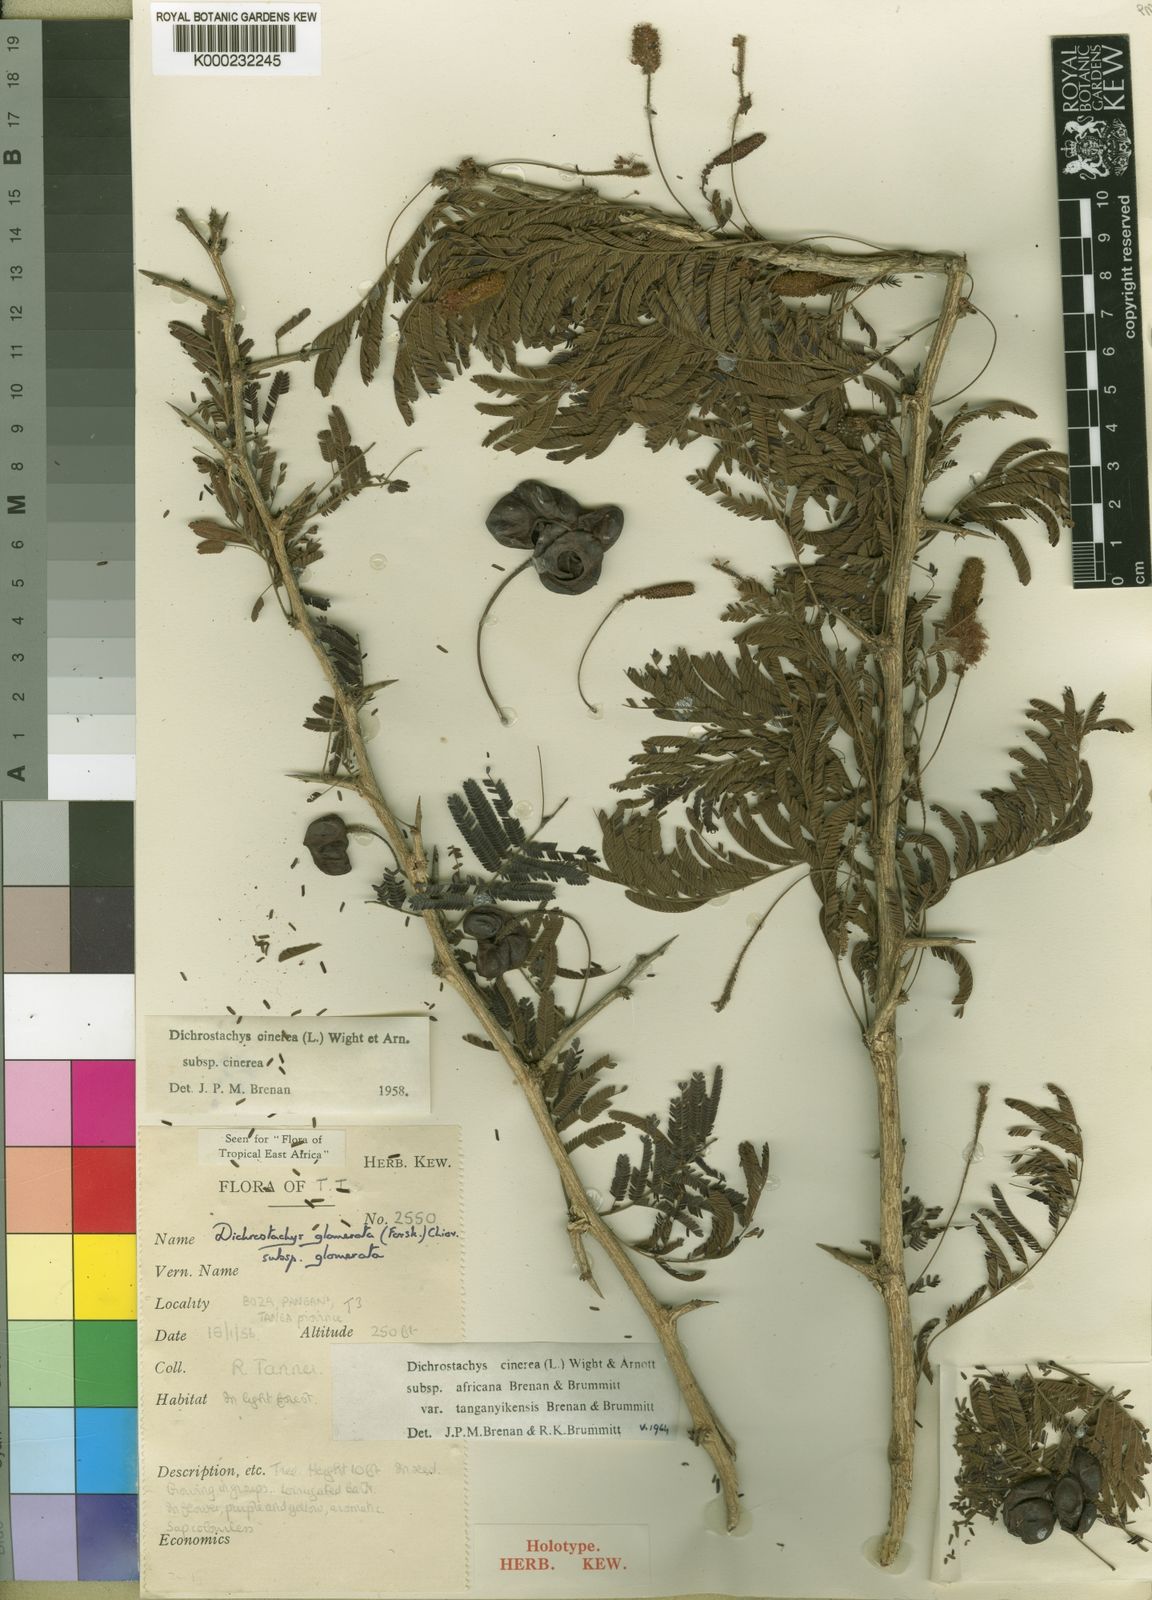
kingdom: Plantae
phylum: Tracheophyta
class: Magnoliopsida
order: Fabales
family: Fabaceae
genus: Dichrostachys
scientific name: Dichrostachys cinerea
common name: Sicklebush
